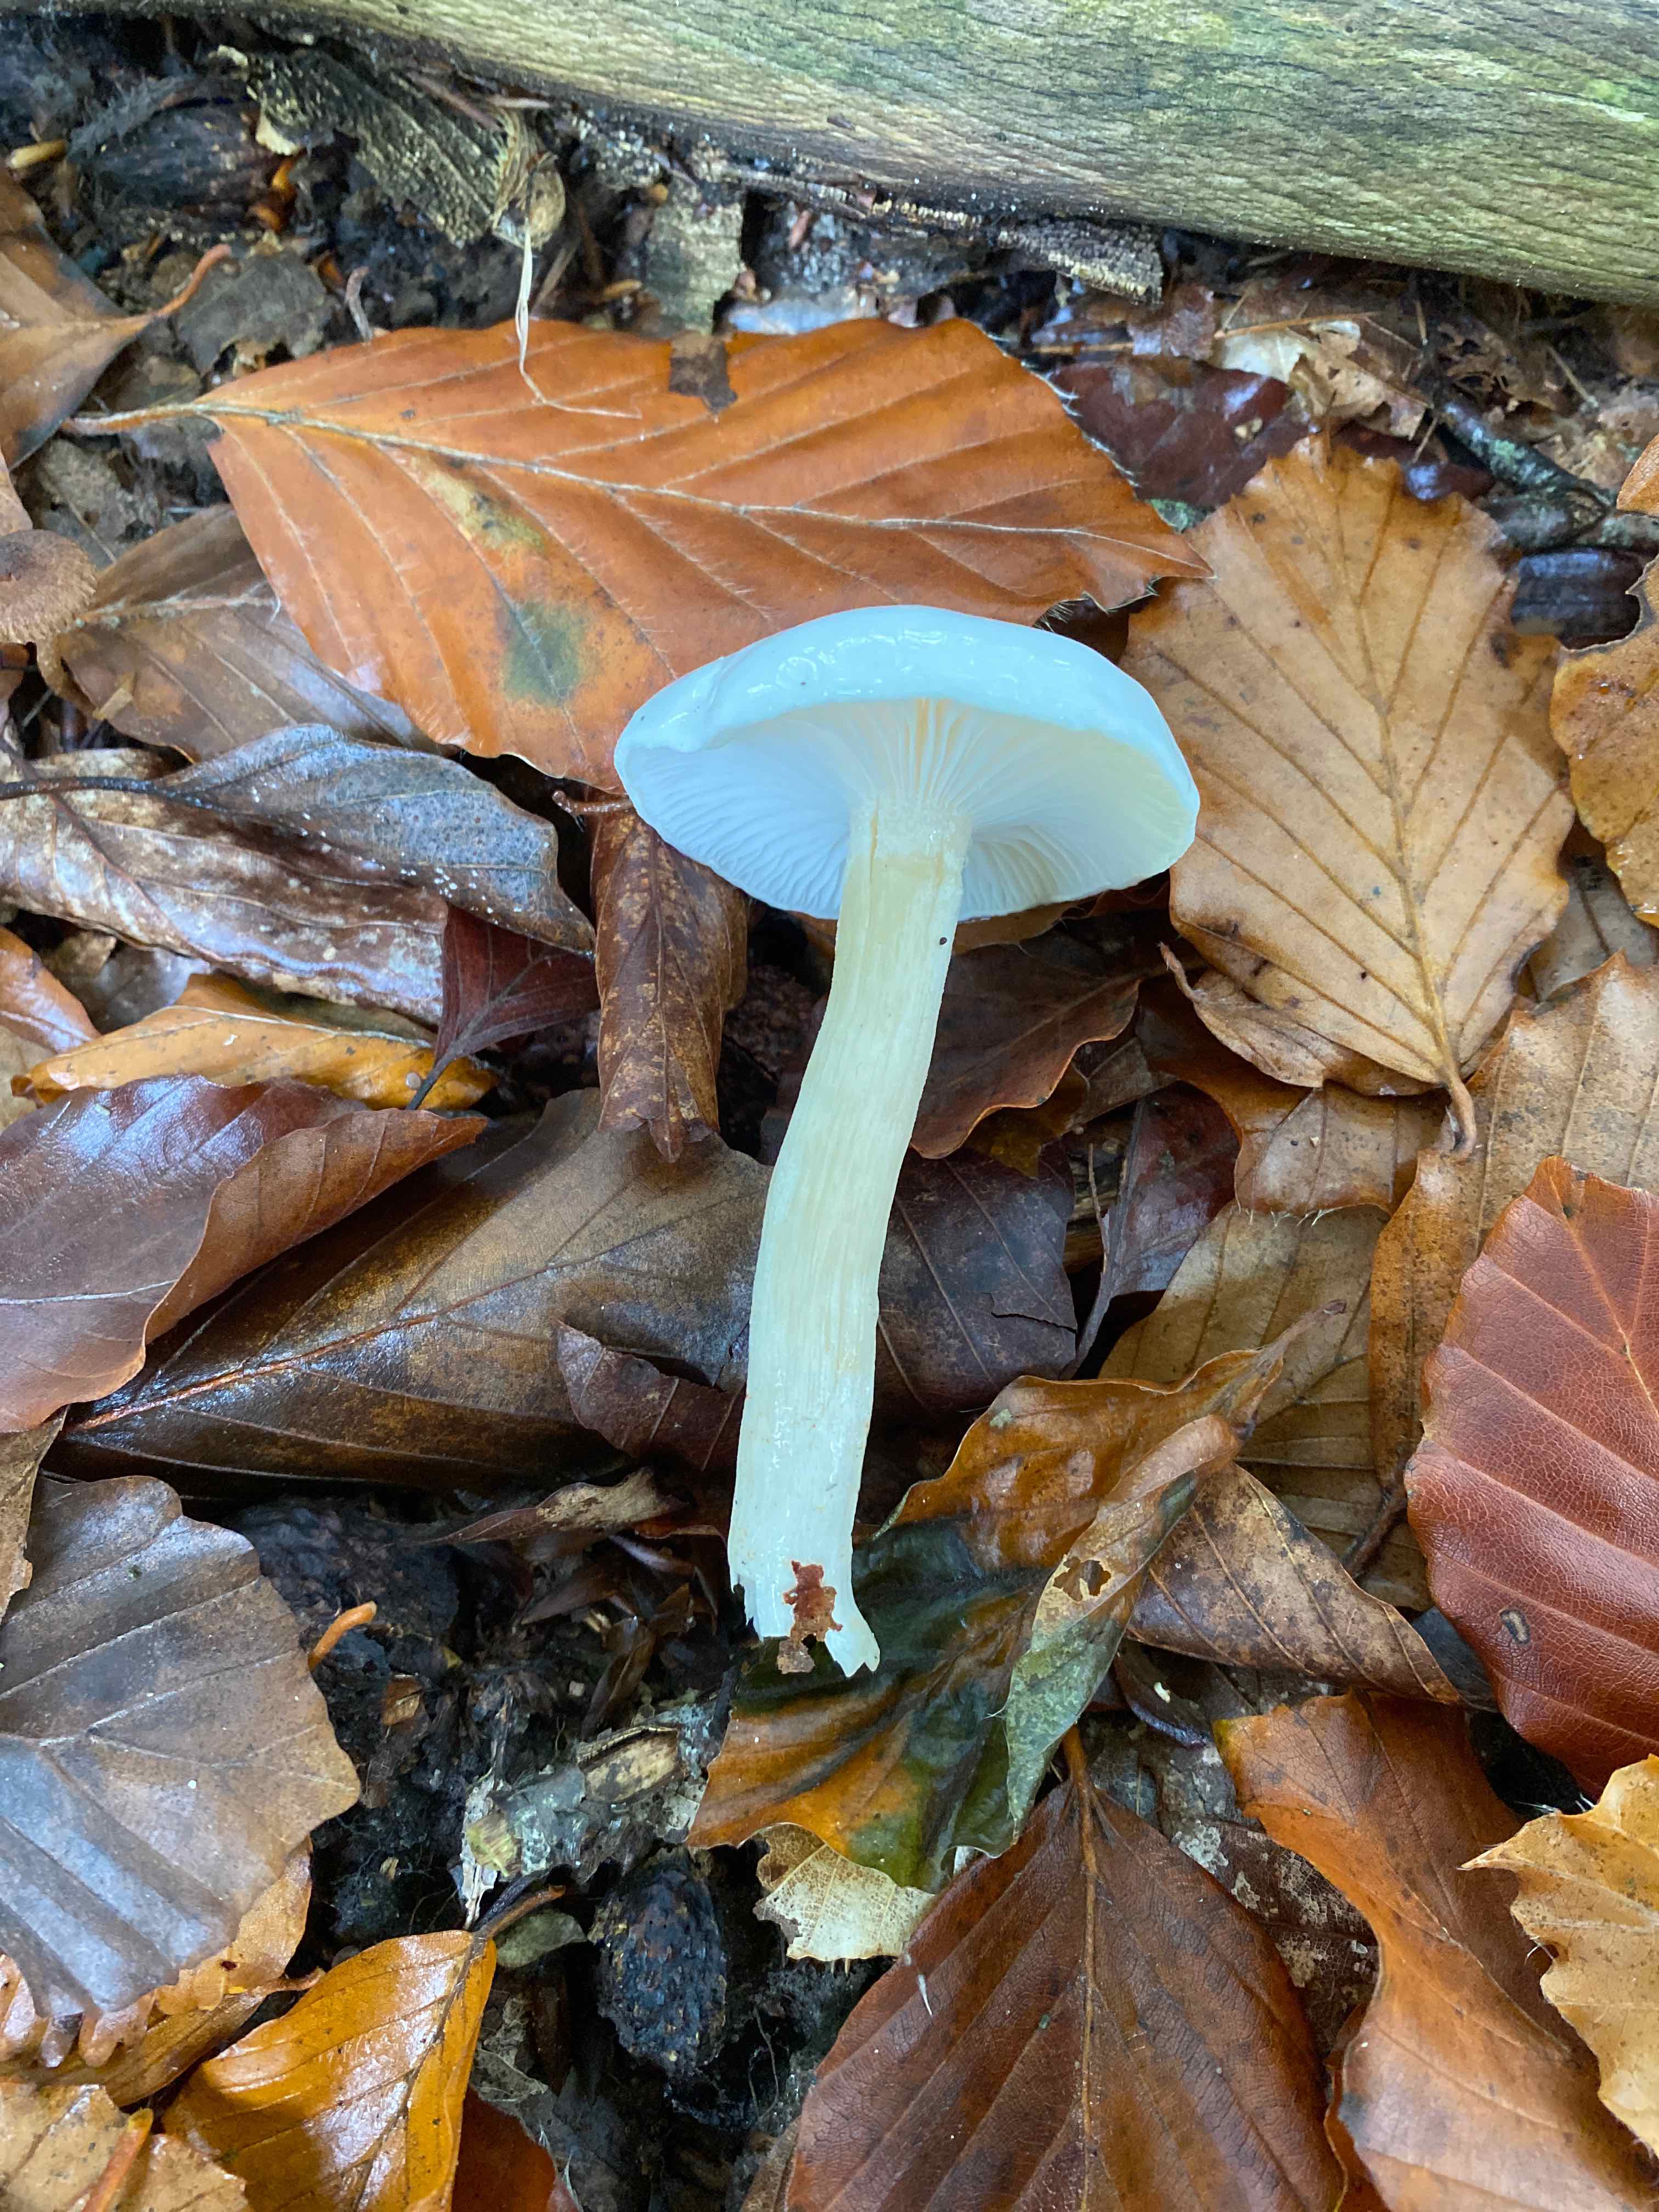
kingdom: Fungi
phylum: Basidiomycota
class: Agaricomycetes
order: Agaricales
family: Hygrophoraceae
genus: Hygrophorus
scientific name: Hygrophorus eburneus
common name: elfenbens-sneglehat
